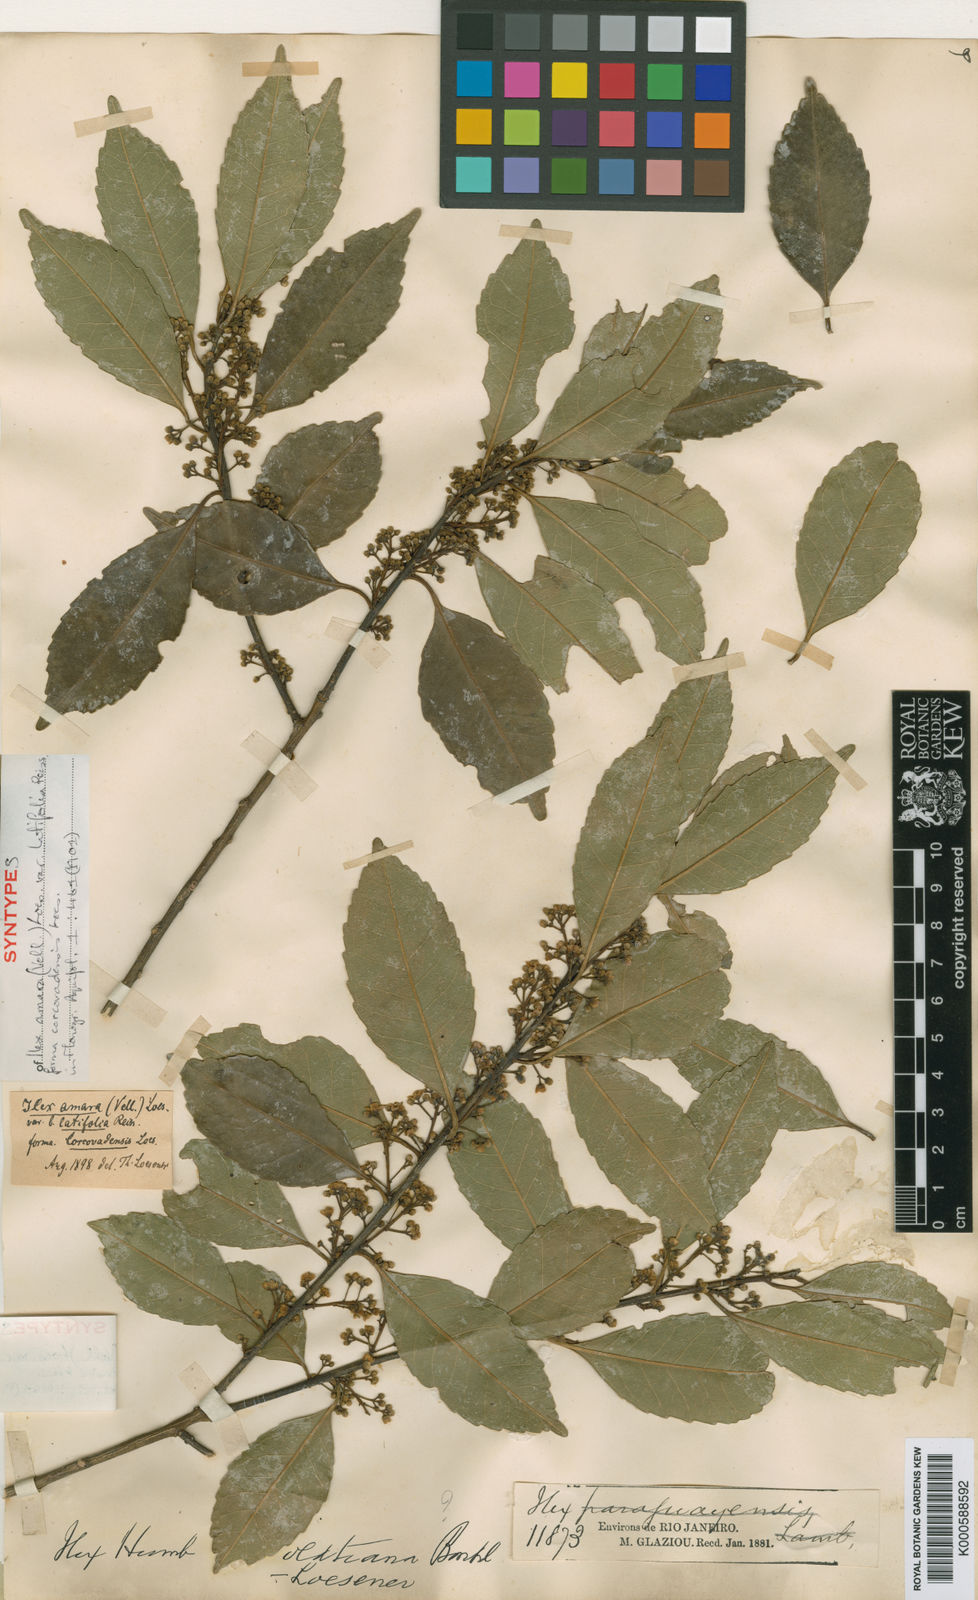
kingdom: Plantae
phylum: Tracheophyta
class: Magnoliopsida
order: Aquifoliales
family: Aquifoliaceae
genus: Ilex
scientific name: Ilex
